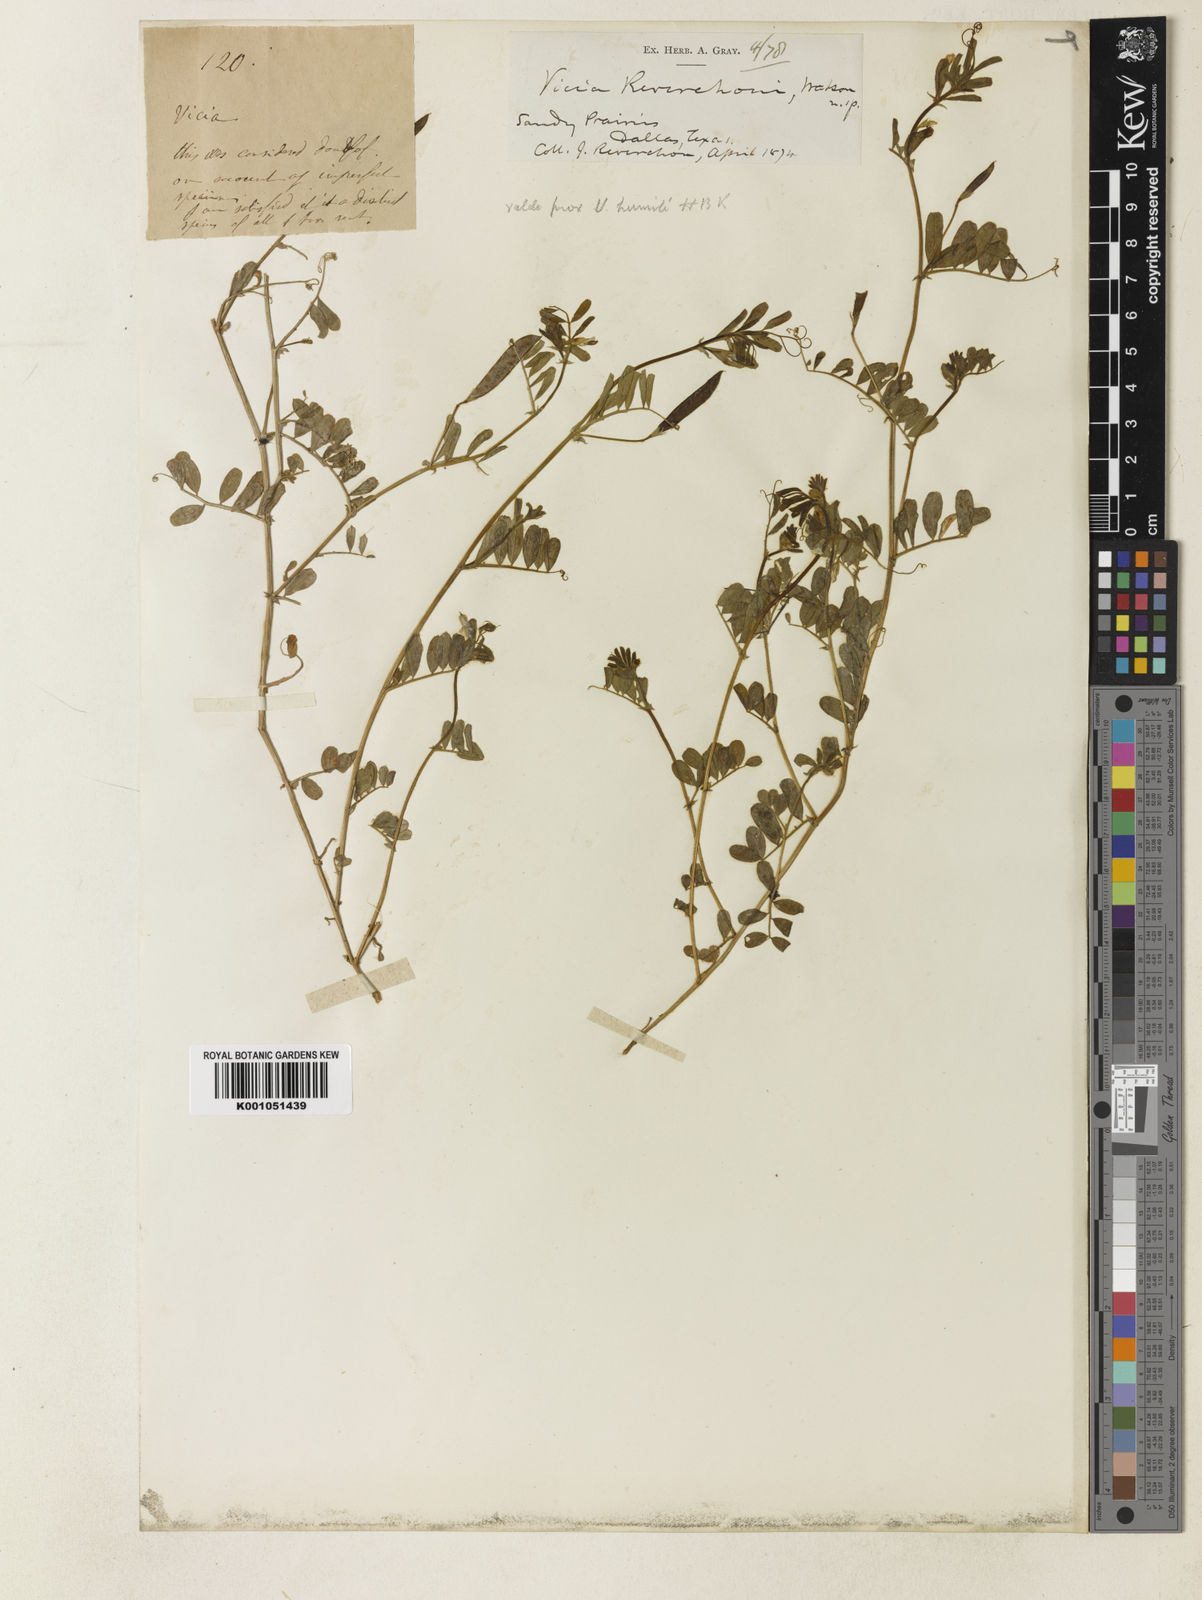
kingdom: Plantae
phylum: Tracheophyta
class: Magnoliopsida
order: Fabales
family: Fabaceae
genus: Vicia
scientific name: Vicia minutiflora
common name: Pygmy-flower vetch
